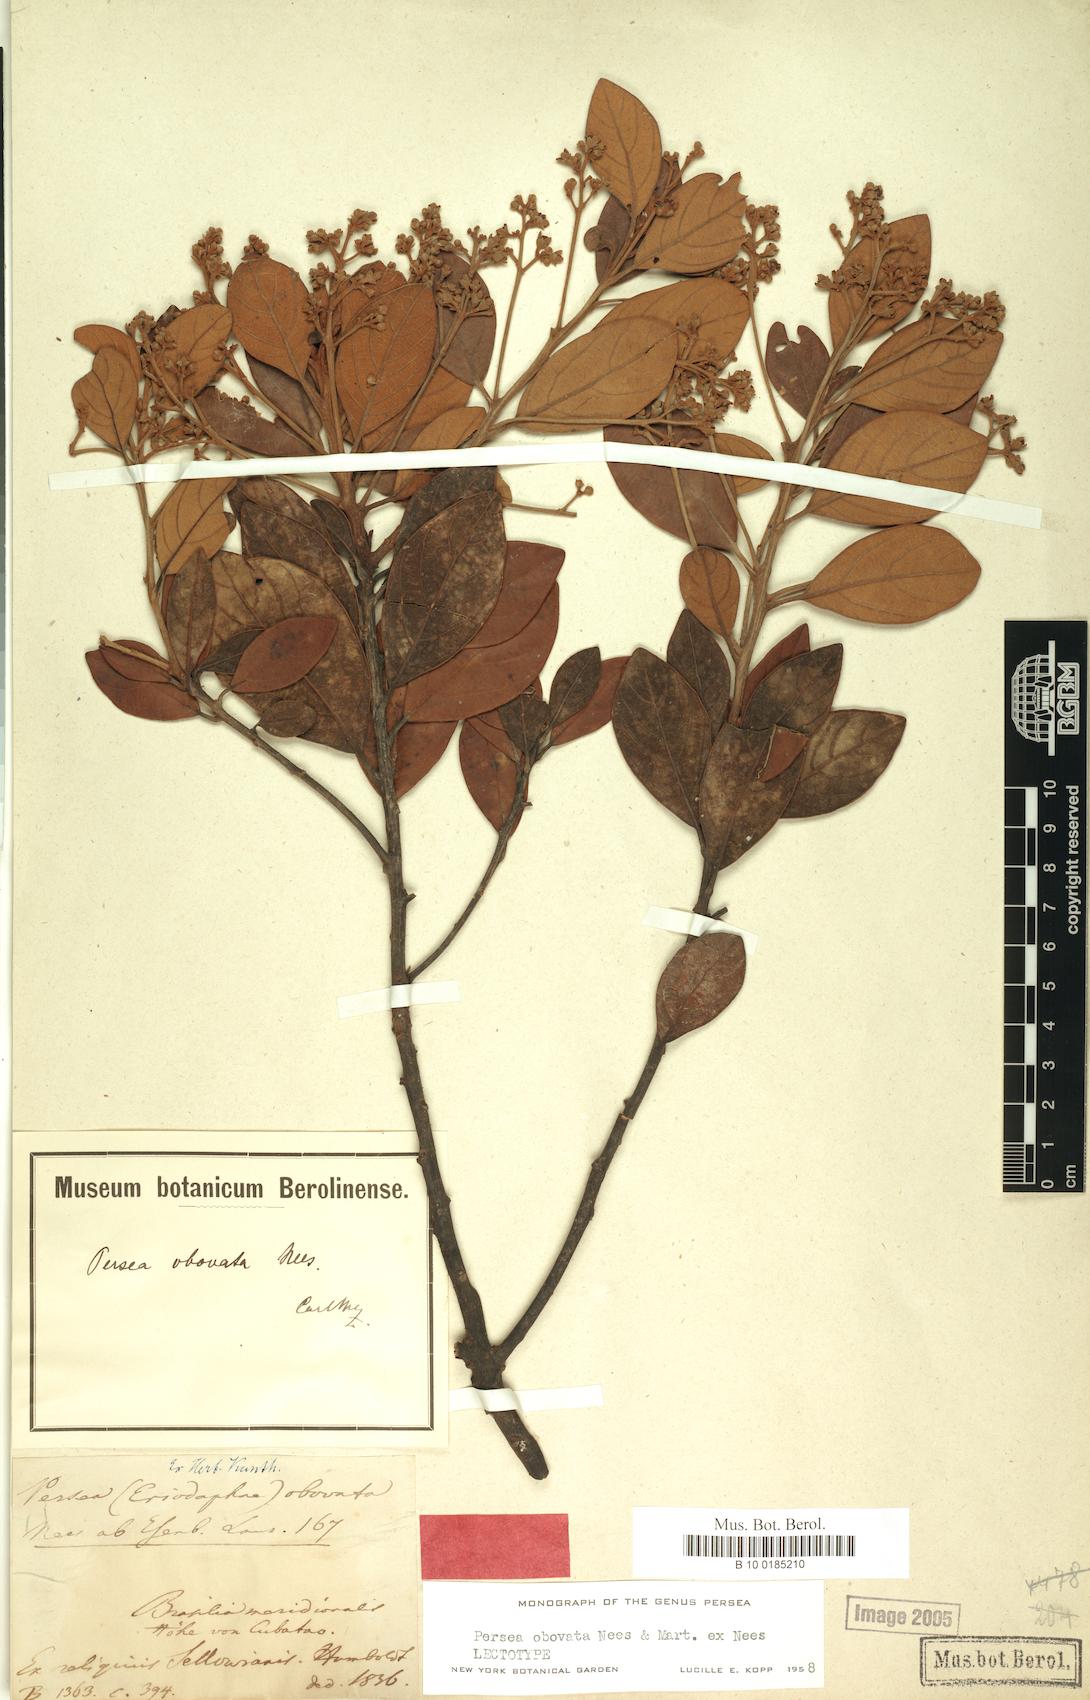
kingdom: Plantae
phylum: Tracheophyta
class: Magnoliopsida
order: Laurales
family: Lauraceae
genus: Persea
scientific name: Persea obovata
